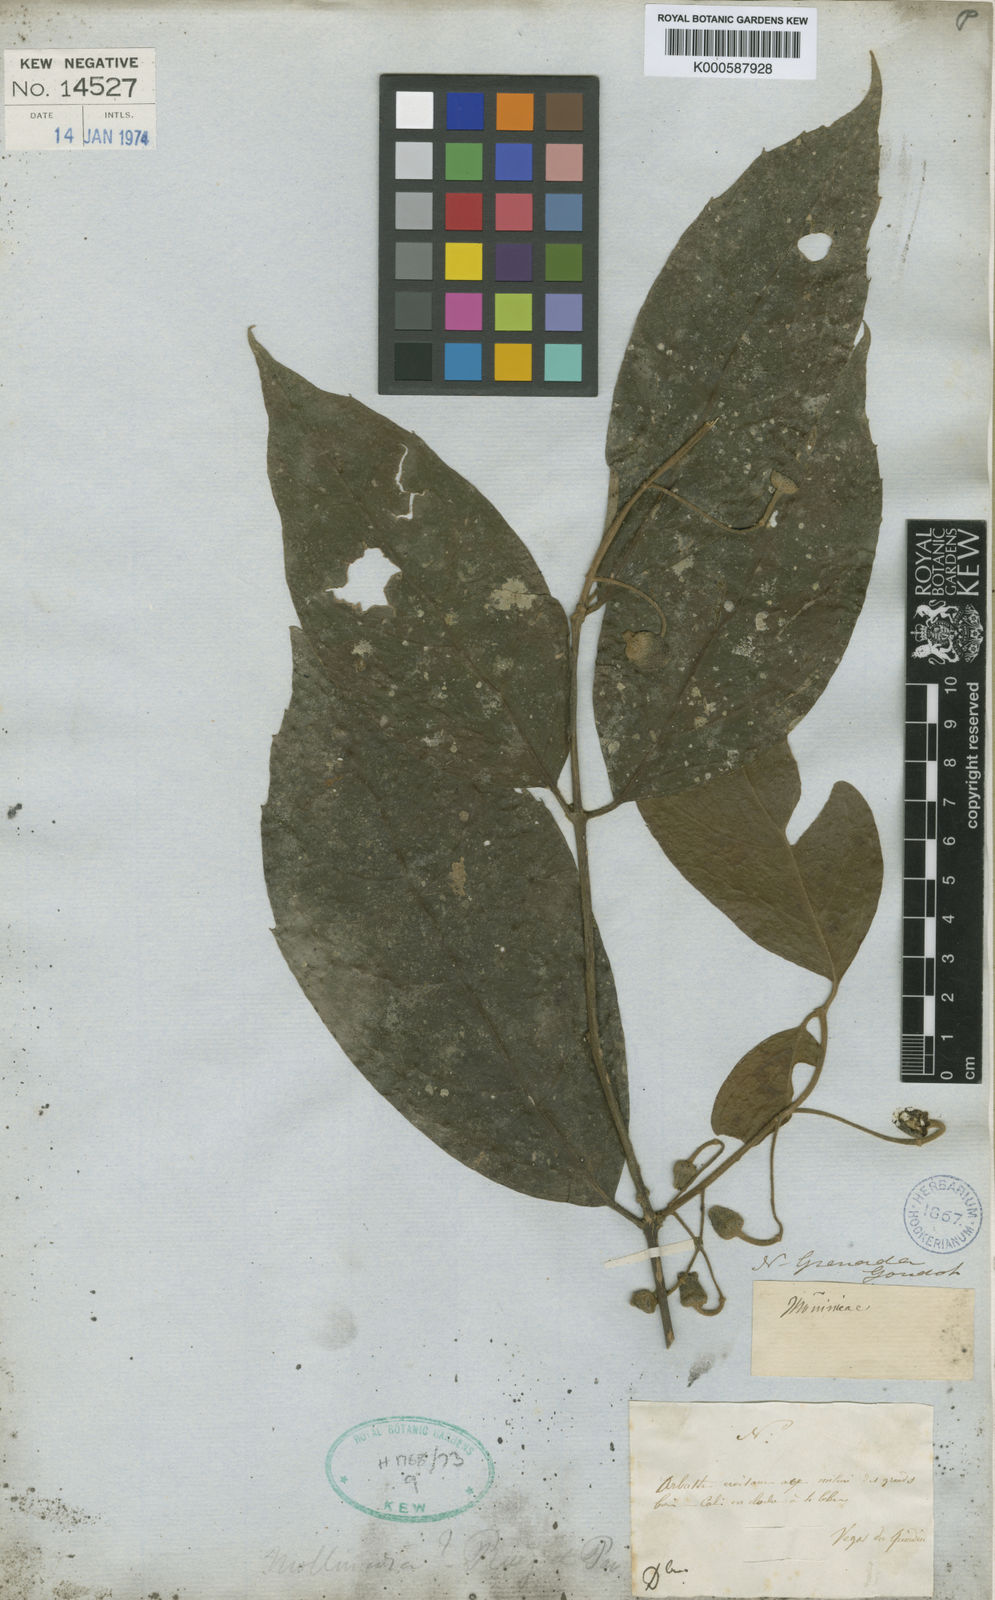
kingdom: Plantae
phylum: Tracheophyta
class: Magnoliopsida
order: Laurales
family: Monimiaceae
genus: Mollinedia
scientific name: Mollinedia tomentosa
